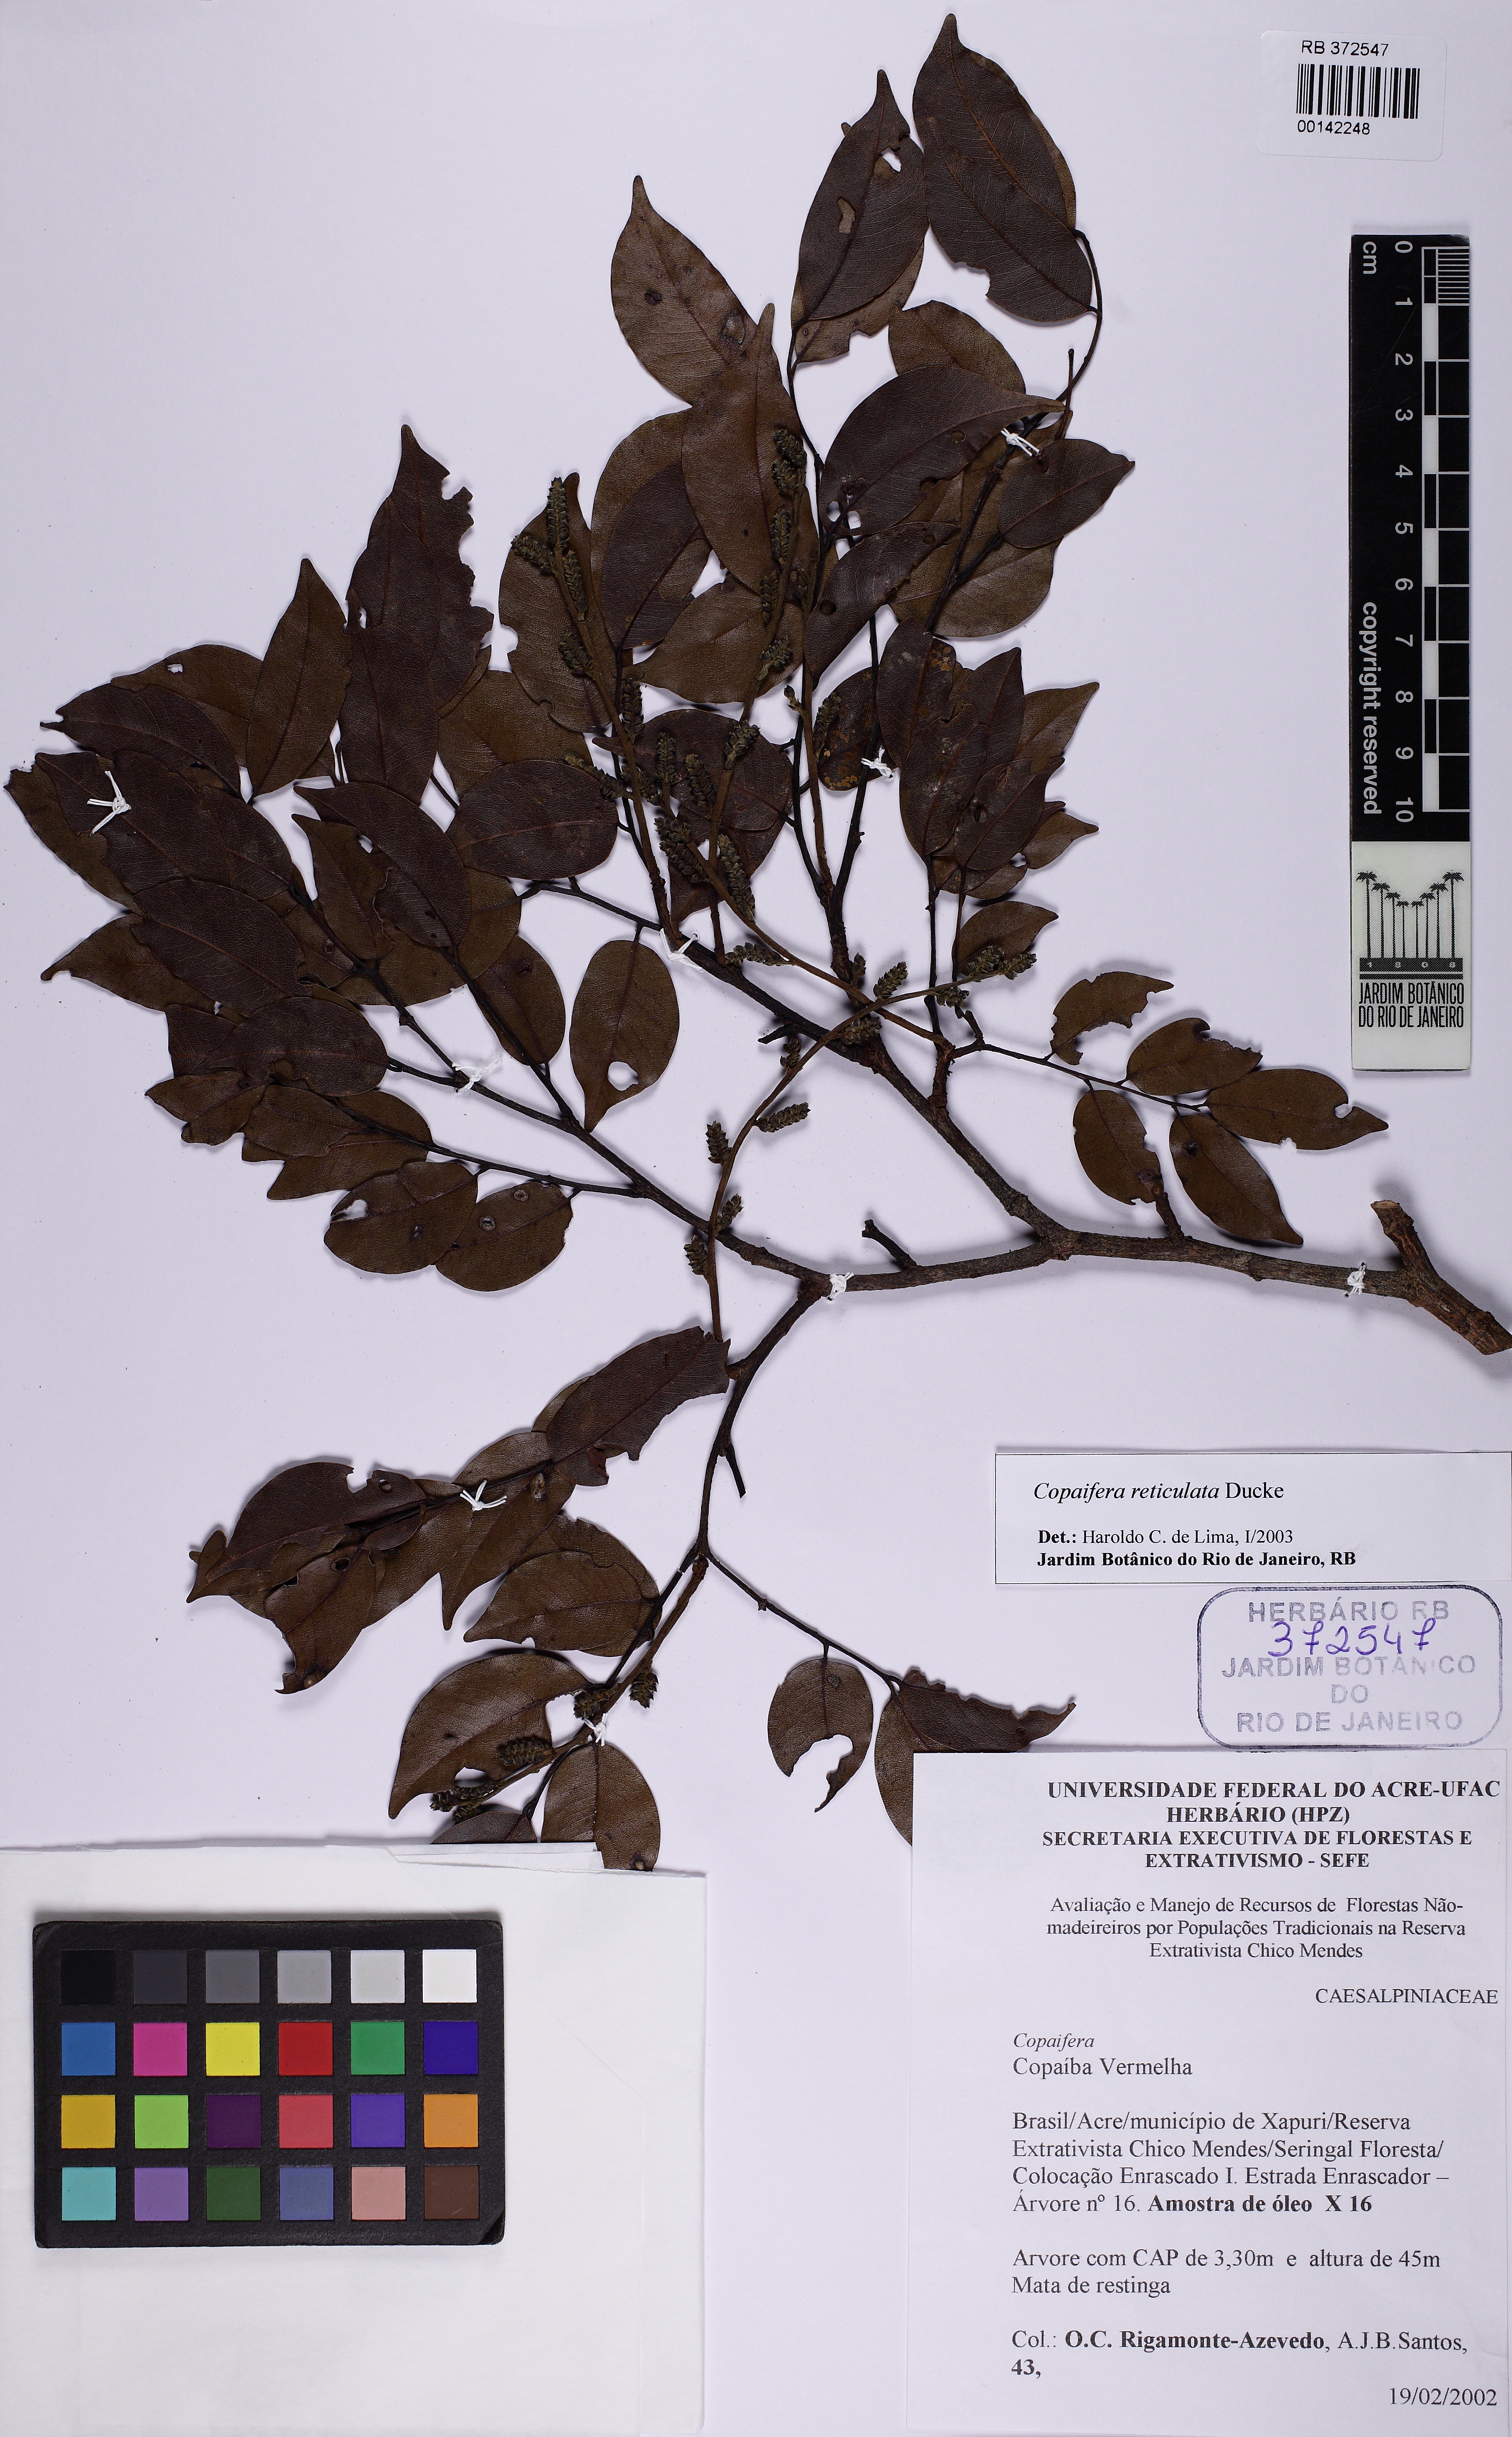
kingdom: Plantae
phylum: Tracheophyta
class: Magnoliopsida
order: Fabales
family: Fabaceae
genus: Copaifera
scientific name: Copaifera copaibo
